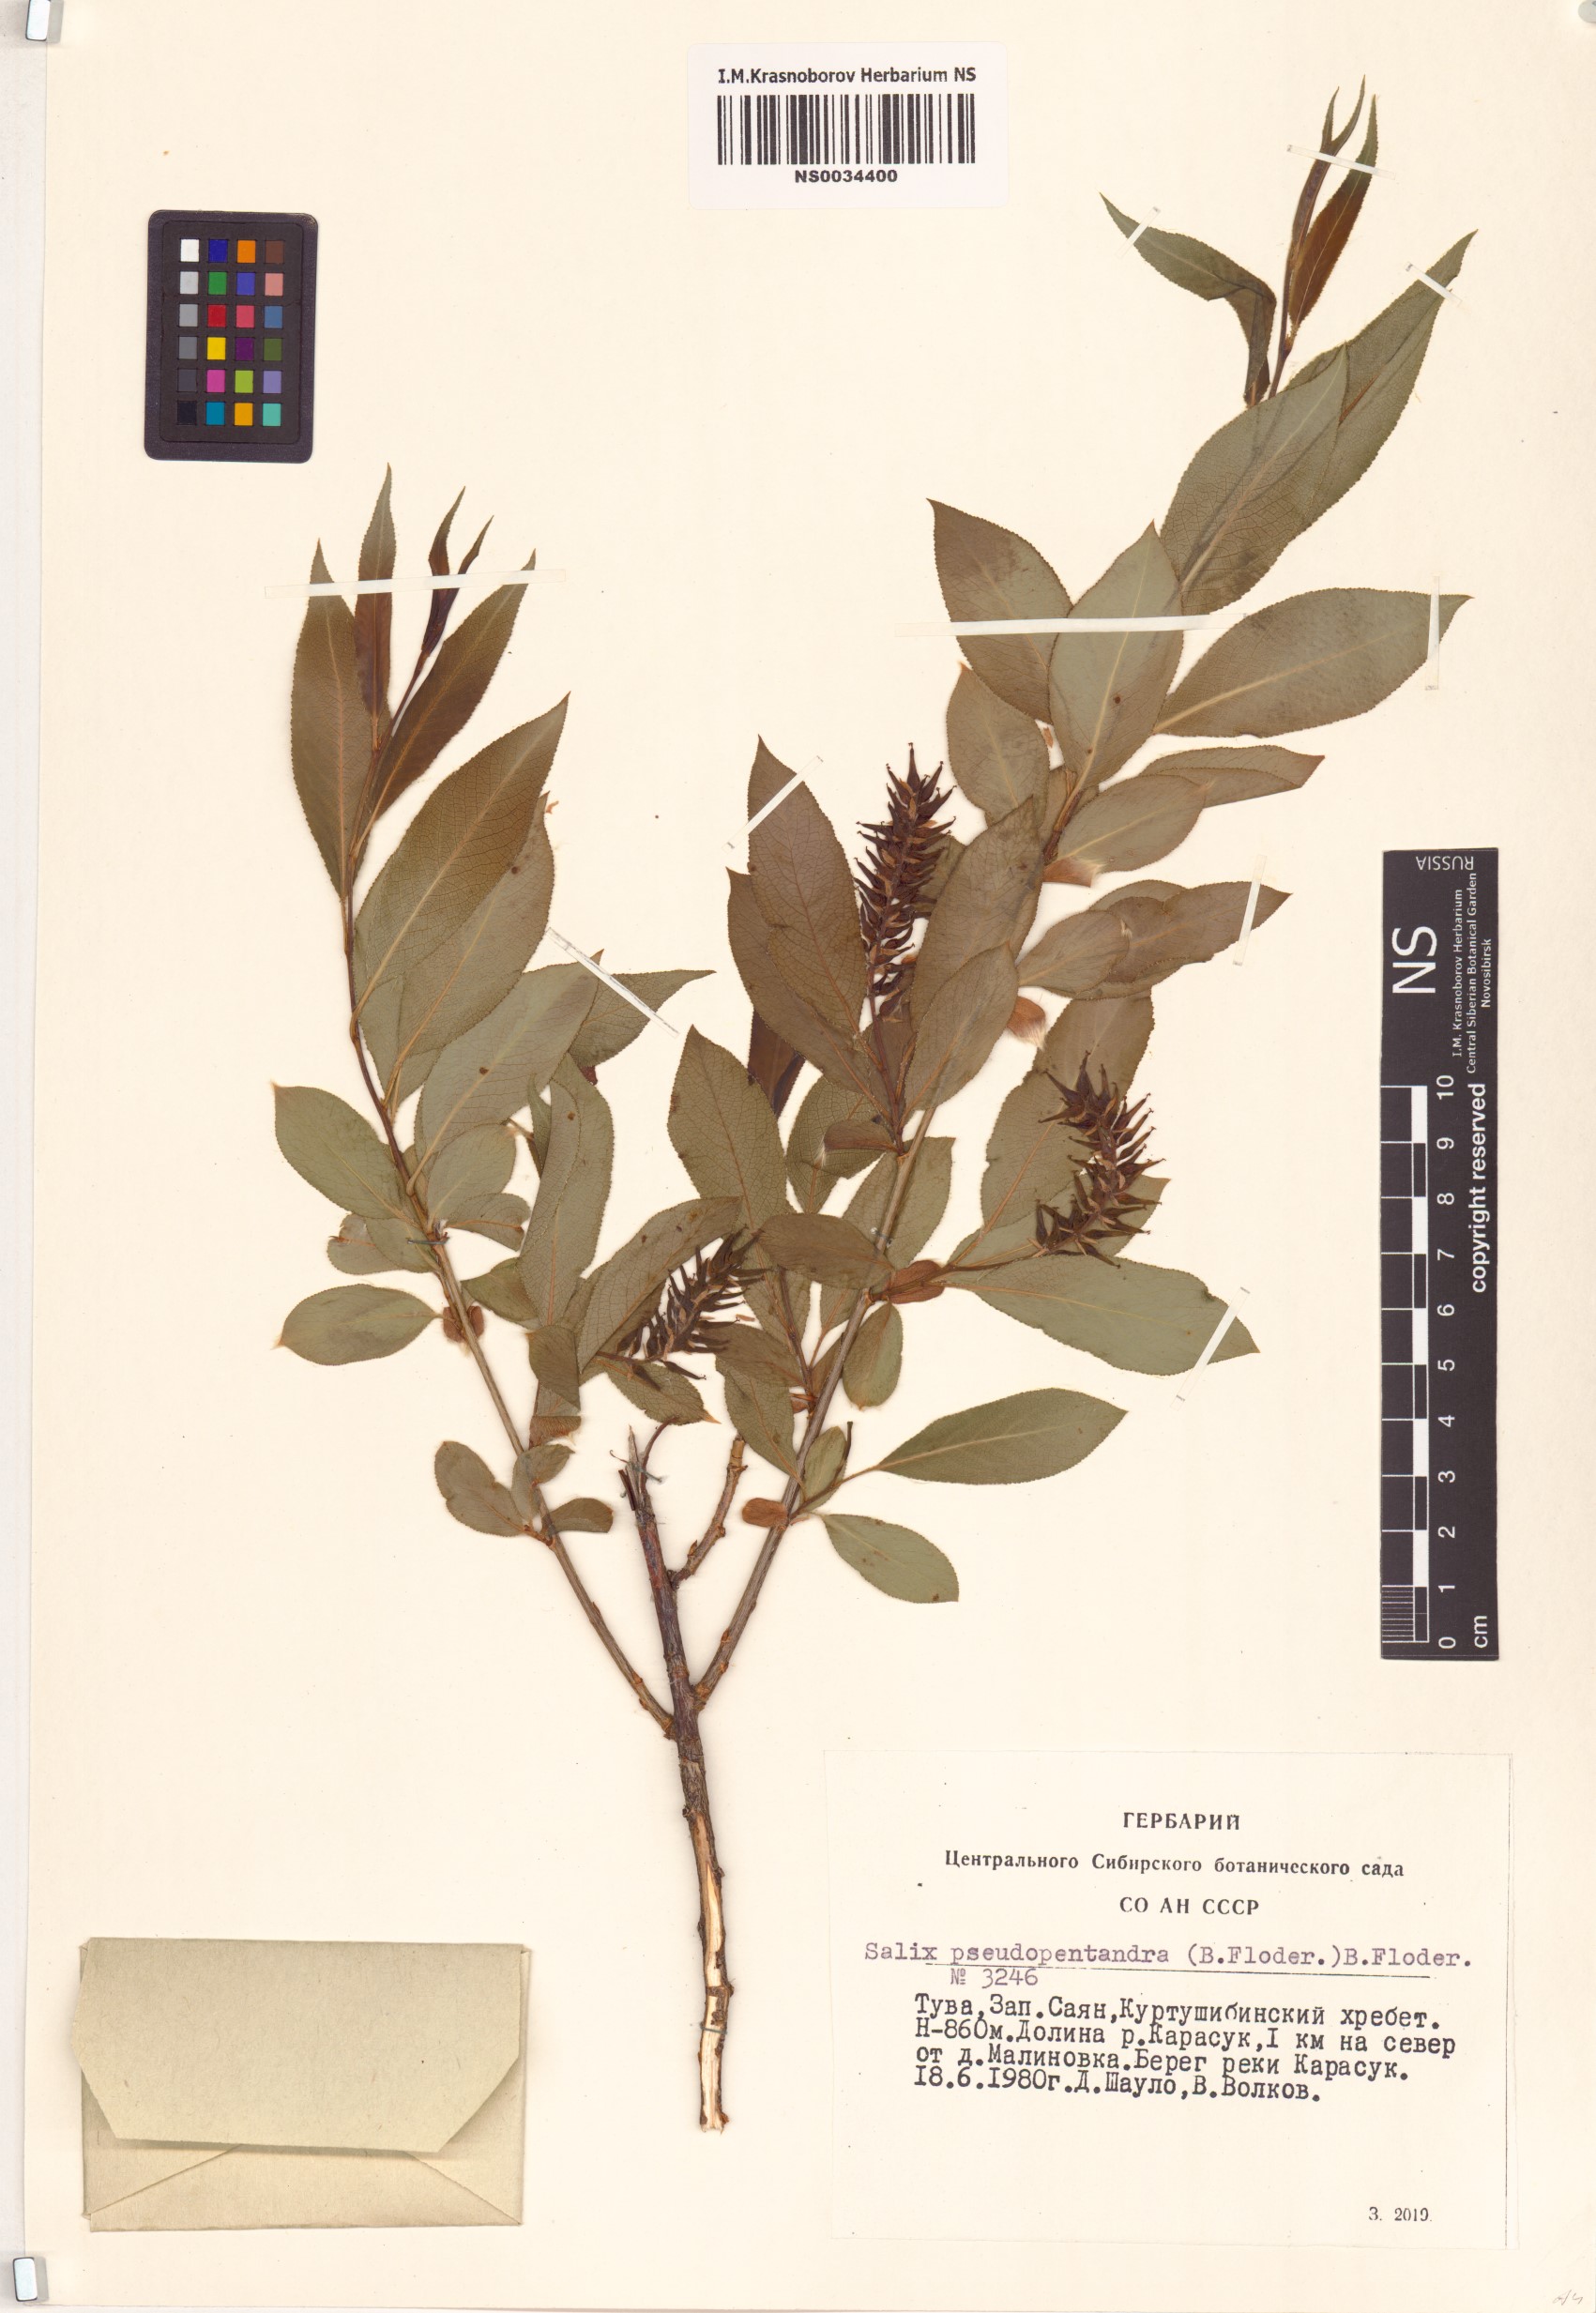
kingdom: Plantae
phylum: Tracheophyta
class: Magnoliopsida
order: Malpighiales
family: Salicaceae
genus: Salix
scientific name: Salix pseudopentandra
